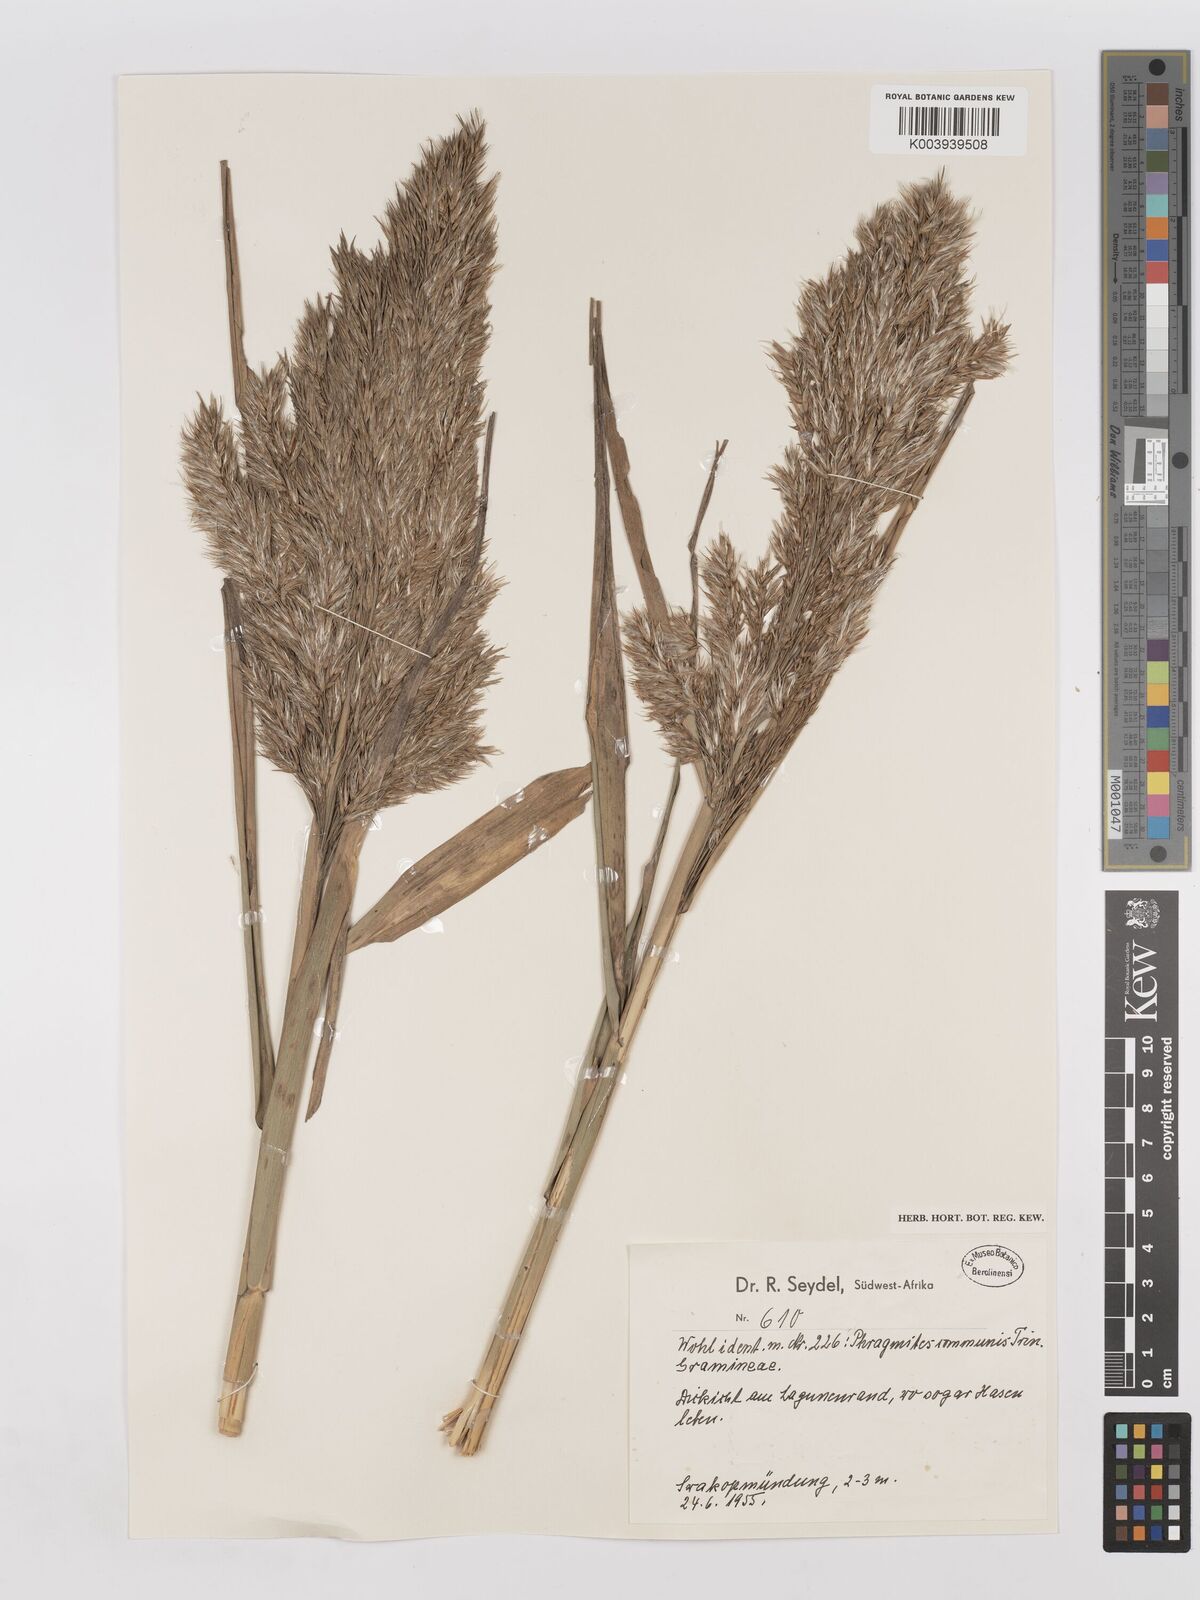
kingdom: Plantae
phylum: Tracheophyta
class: Liliopsida
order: Poales
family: Poaceae
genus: Phragmites
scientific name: Phragmites australis
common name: Common reed
